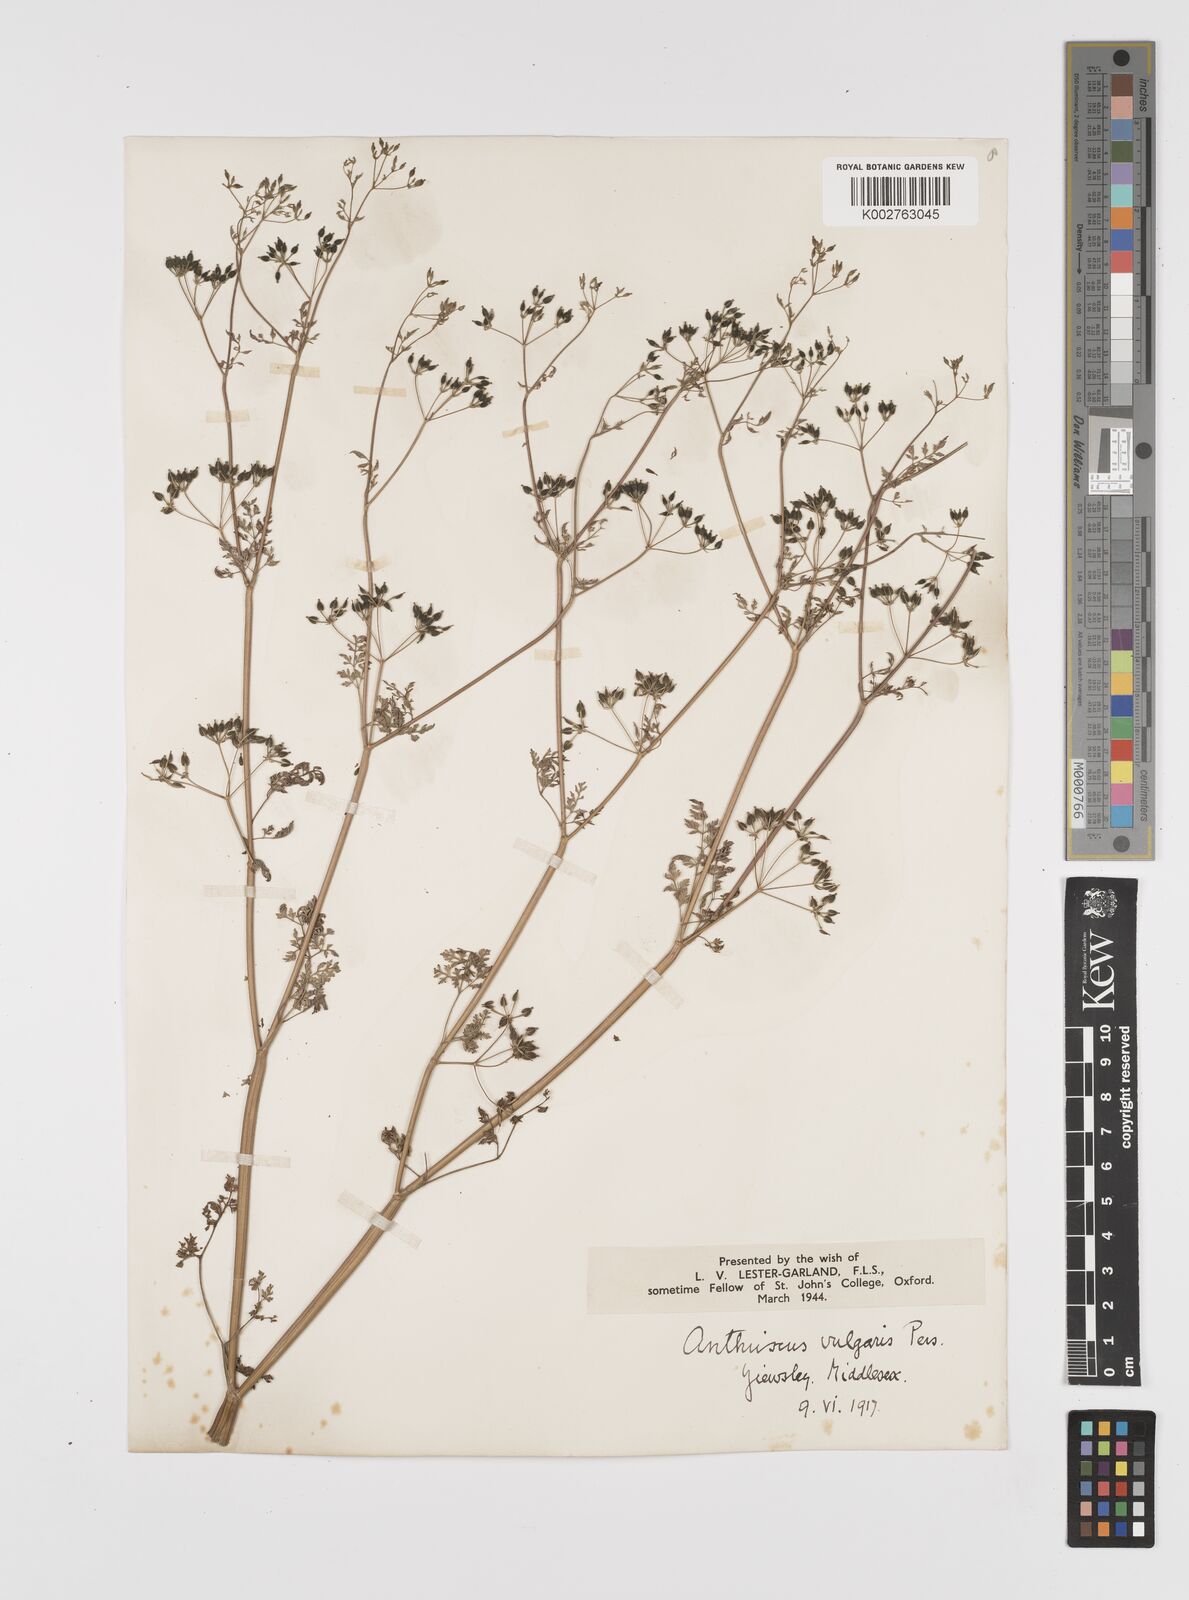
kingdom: Plantae
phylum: Tracheophyta
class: Magnoliopsida
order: Apiales
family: Apiaceae
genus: Anthriscus
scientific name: Anthriscus caucalis
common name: Bur chervil
